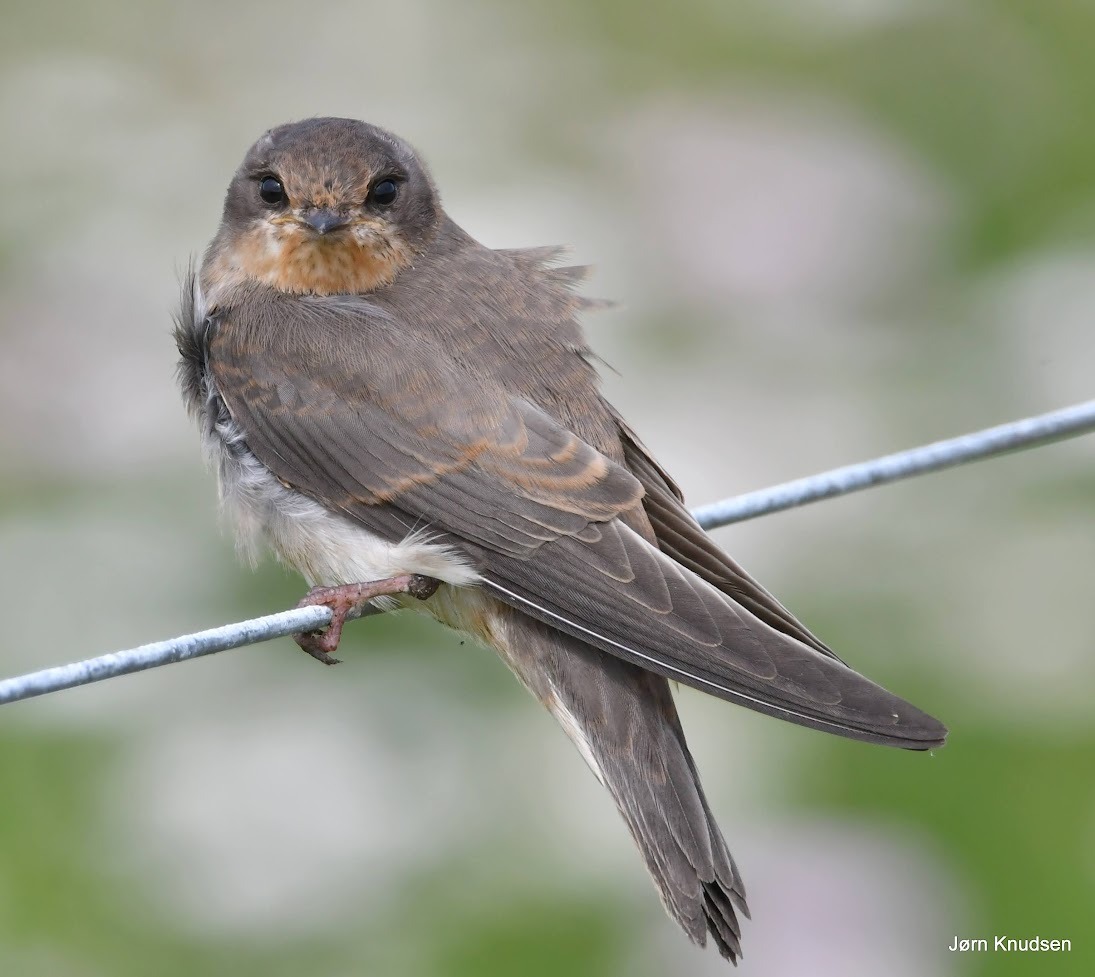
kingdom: Animalia
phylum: Chordata
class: Aves
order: Passeriformes
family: Hirundinidae
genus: Hirundo
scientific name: Hirundo rustica
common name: Landsvale
